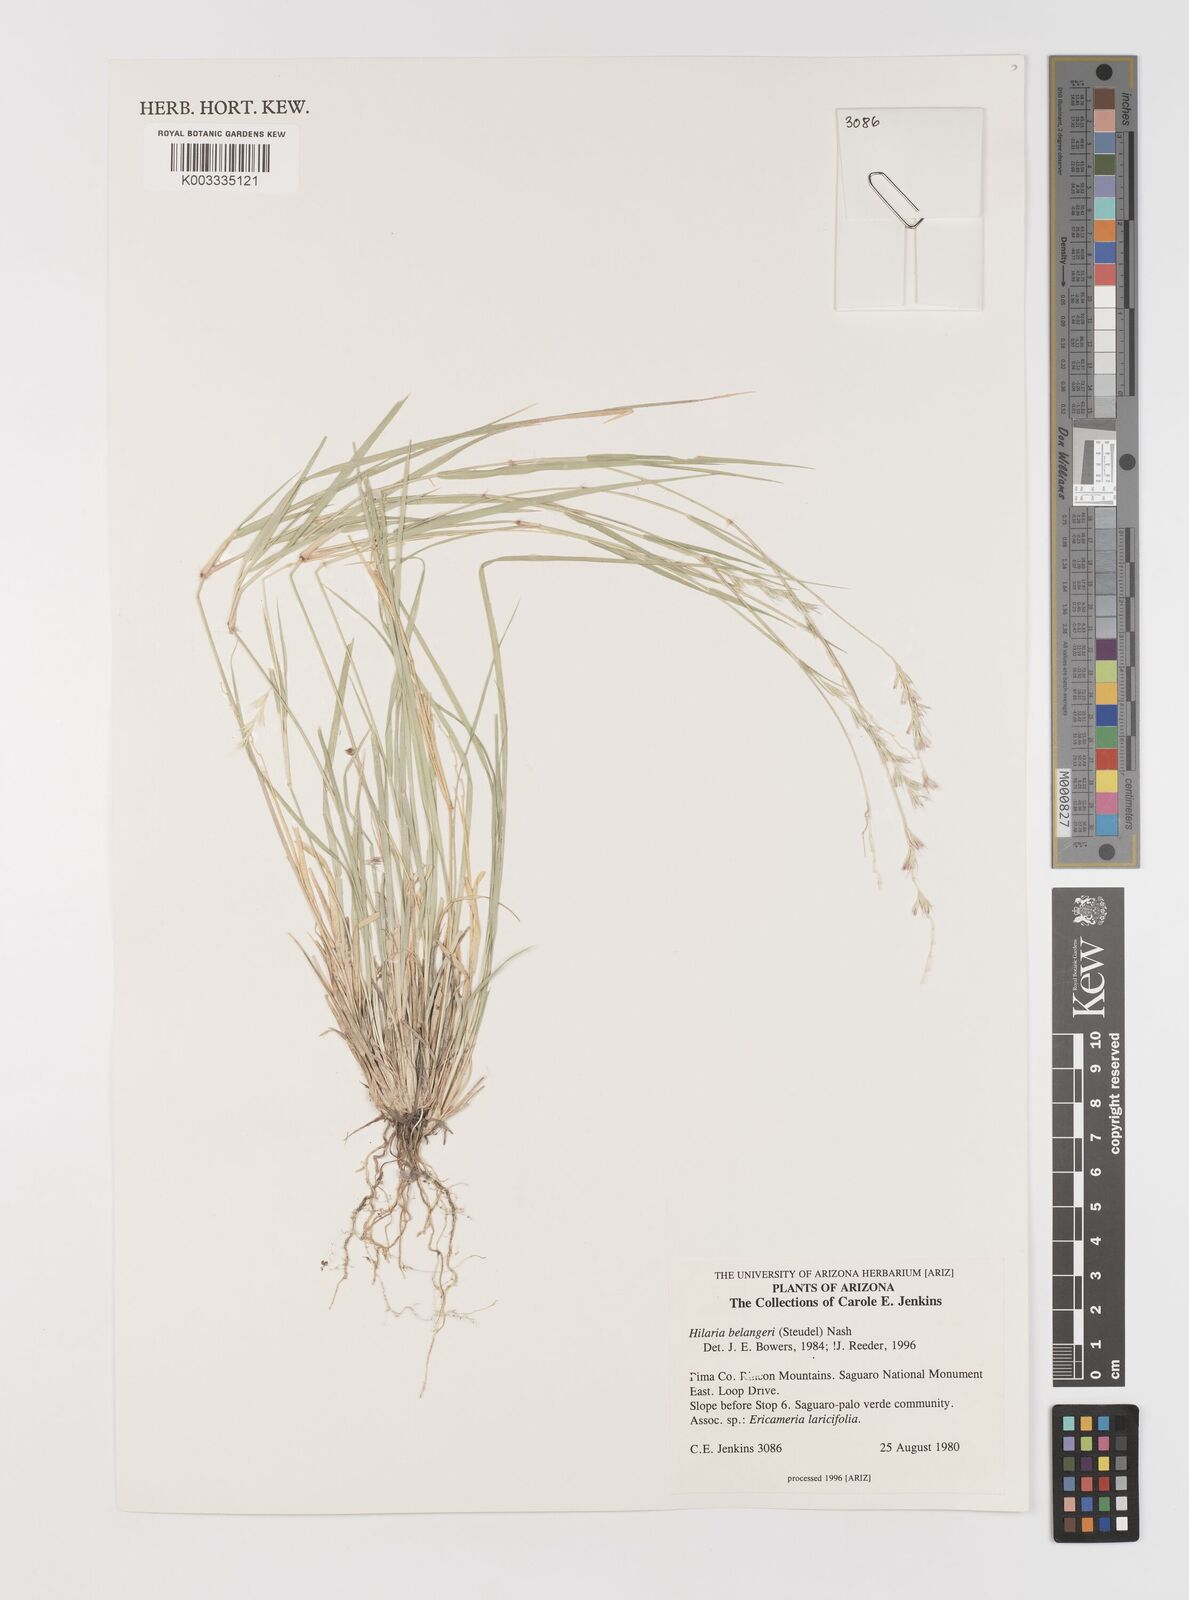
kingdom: Plantae
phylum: Tracheophyta
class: Liliopsida
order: Poales
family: Poaceae
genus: Hilaria
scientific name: Hilaria belangeri
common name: Curly-mesquite
